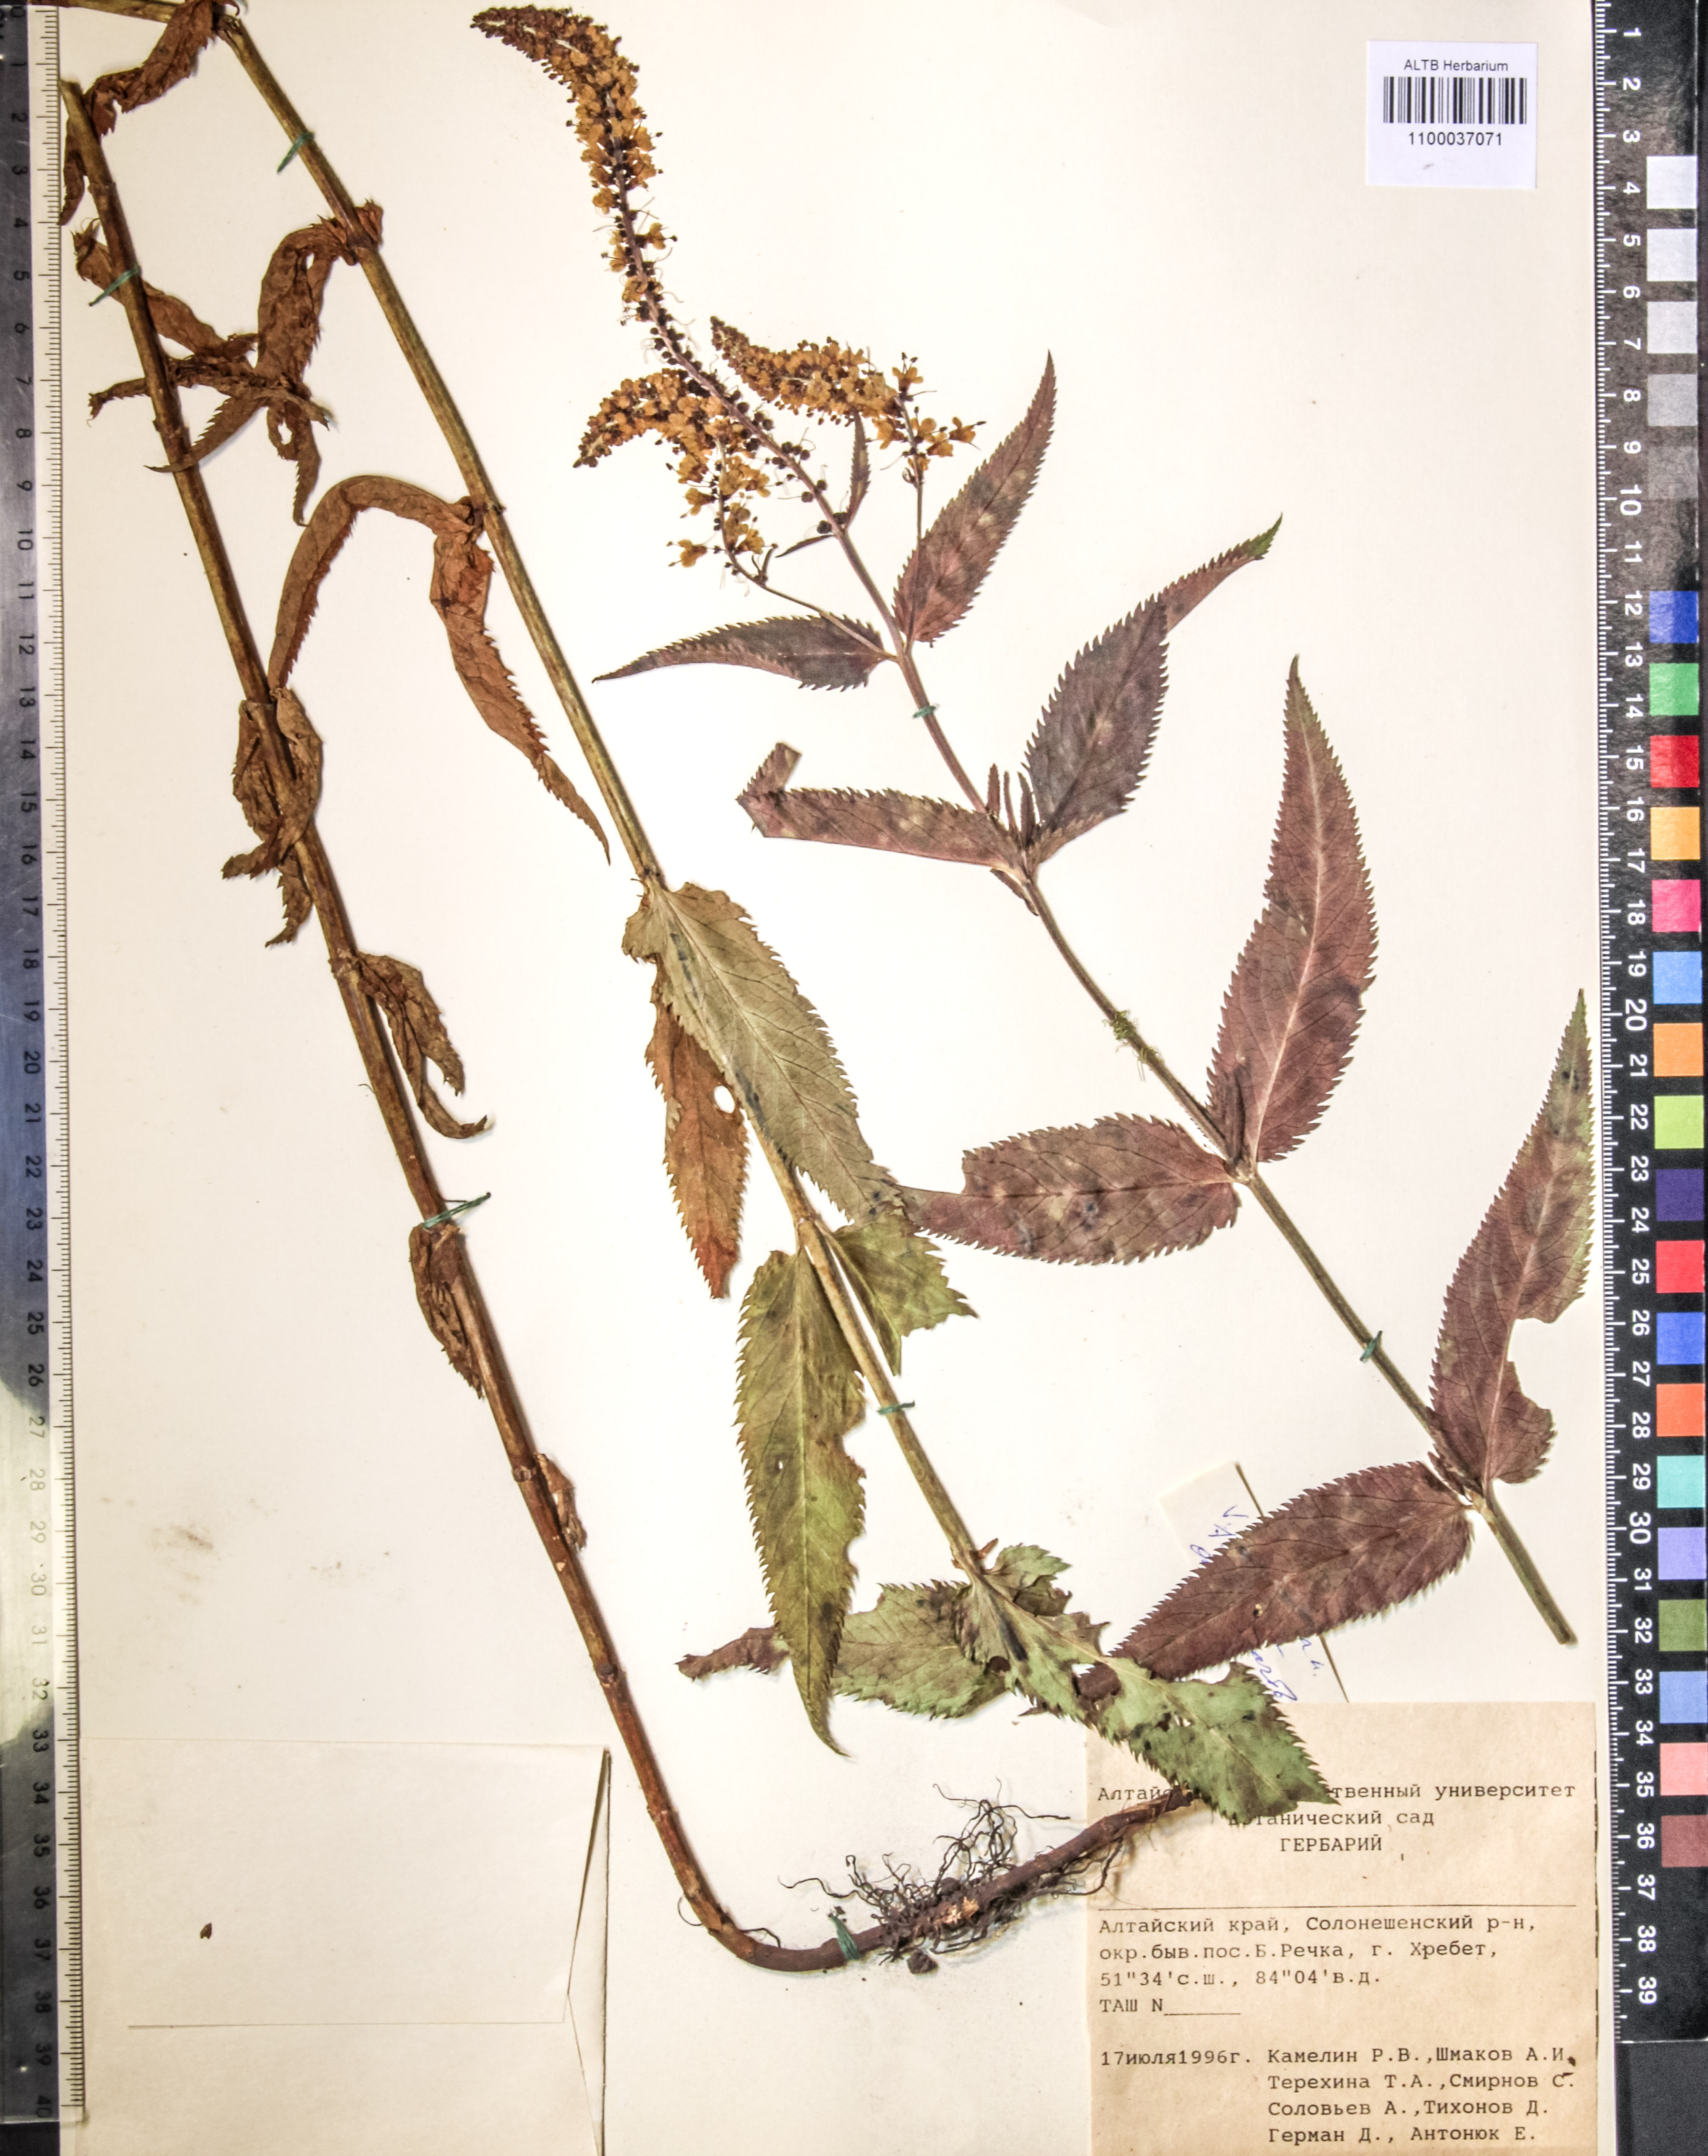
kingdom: Plantae
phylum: Tracheophyta
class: Magnoliopsida
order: Lamiales
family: Plantaginaceae
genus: Veronica
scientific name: Veronica longifolia
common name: Garden speedwell
